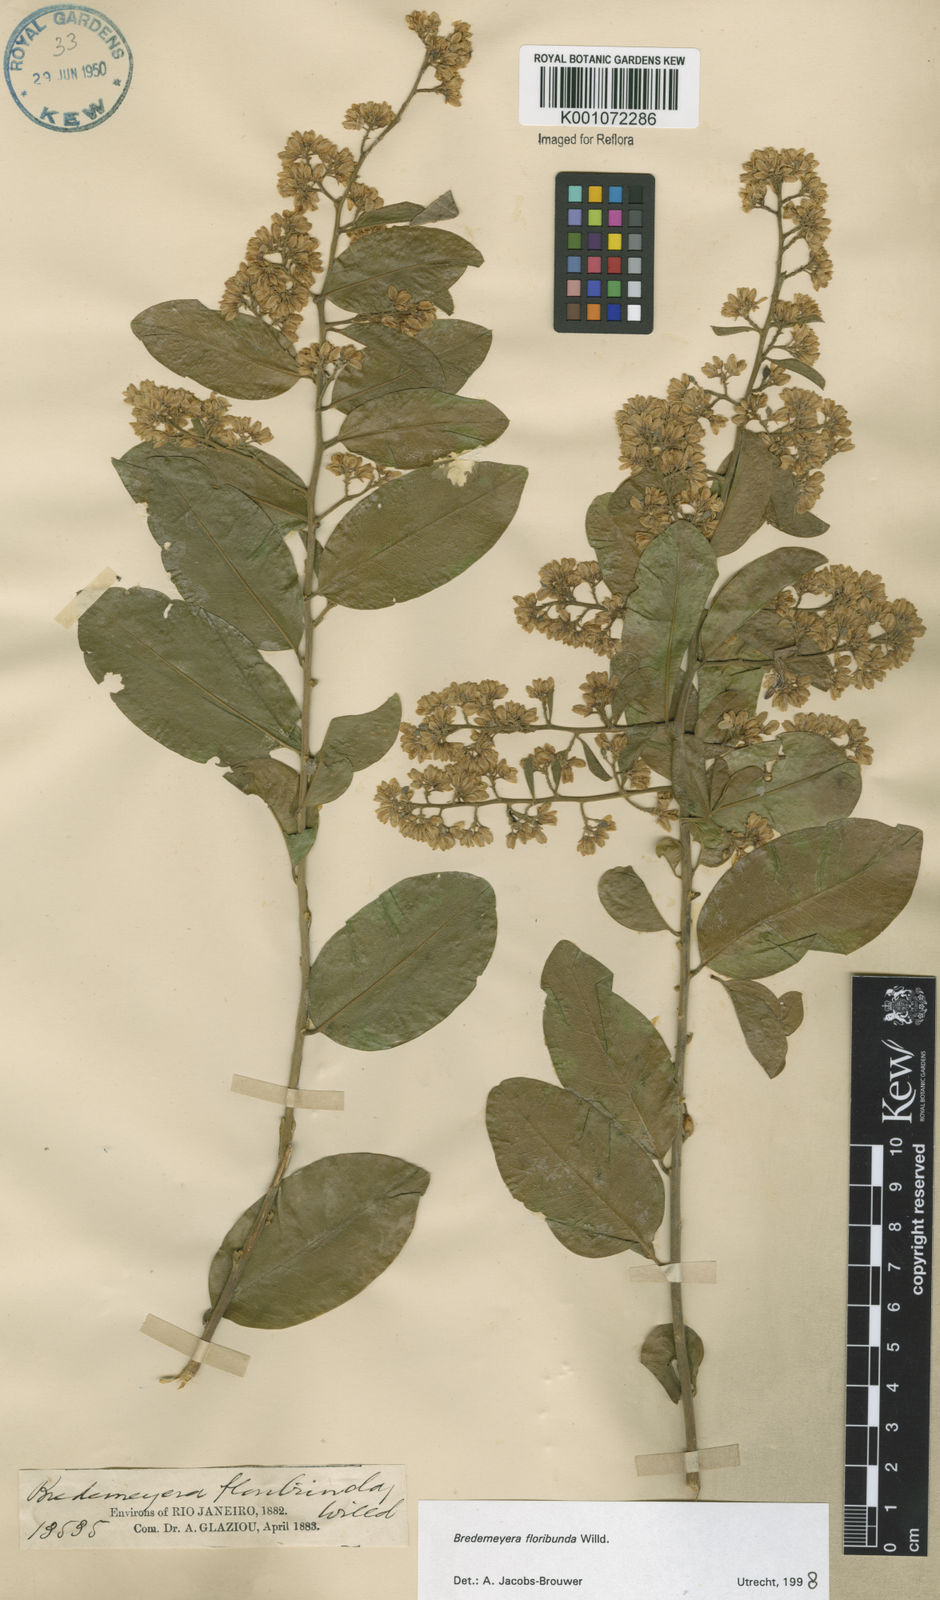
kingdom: Plantae
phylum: Tracheophyta
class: Magnoliopsida
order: Fabales
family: Polygalaceae
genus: Bredemeyera
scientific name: Bredemeyera floribunda
